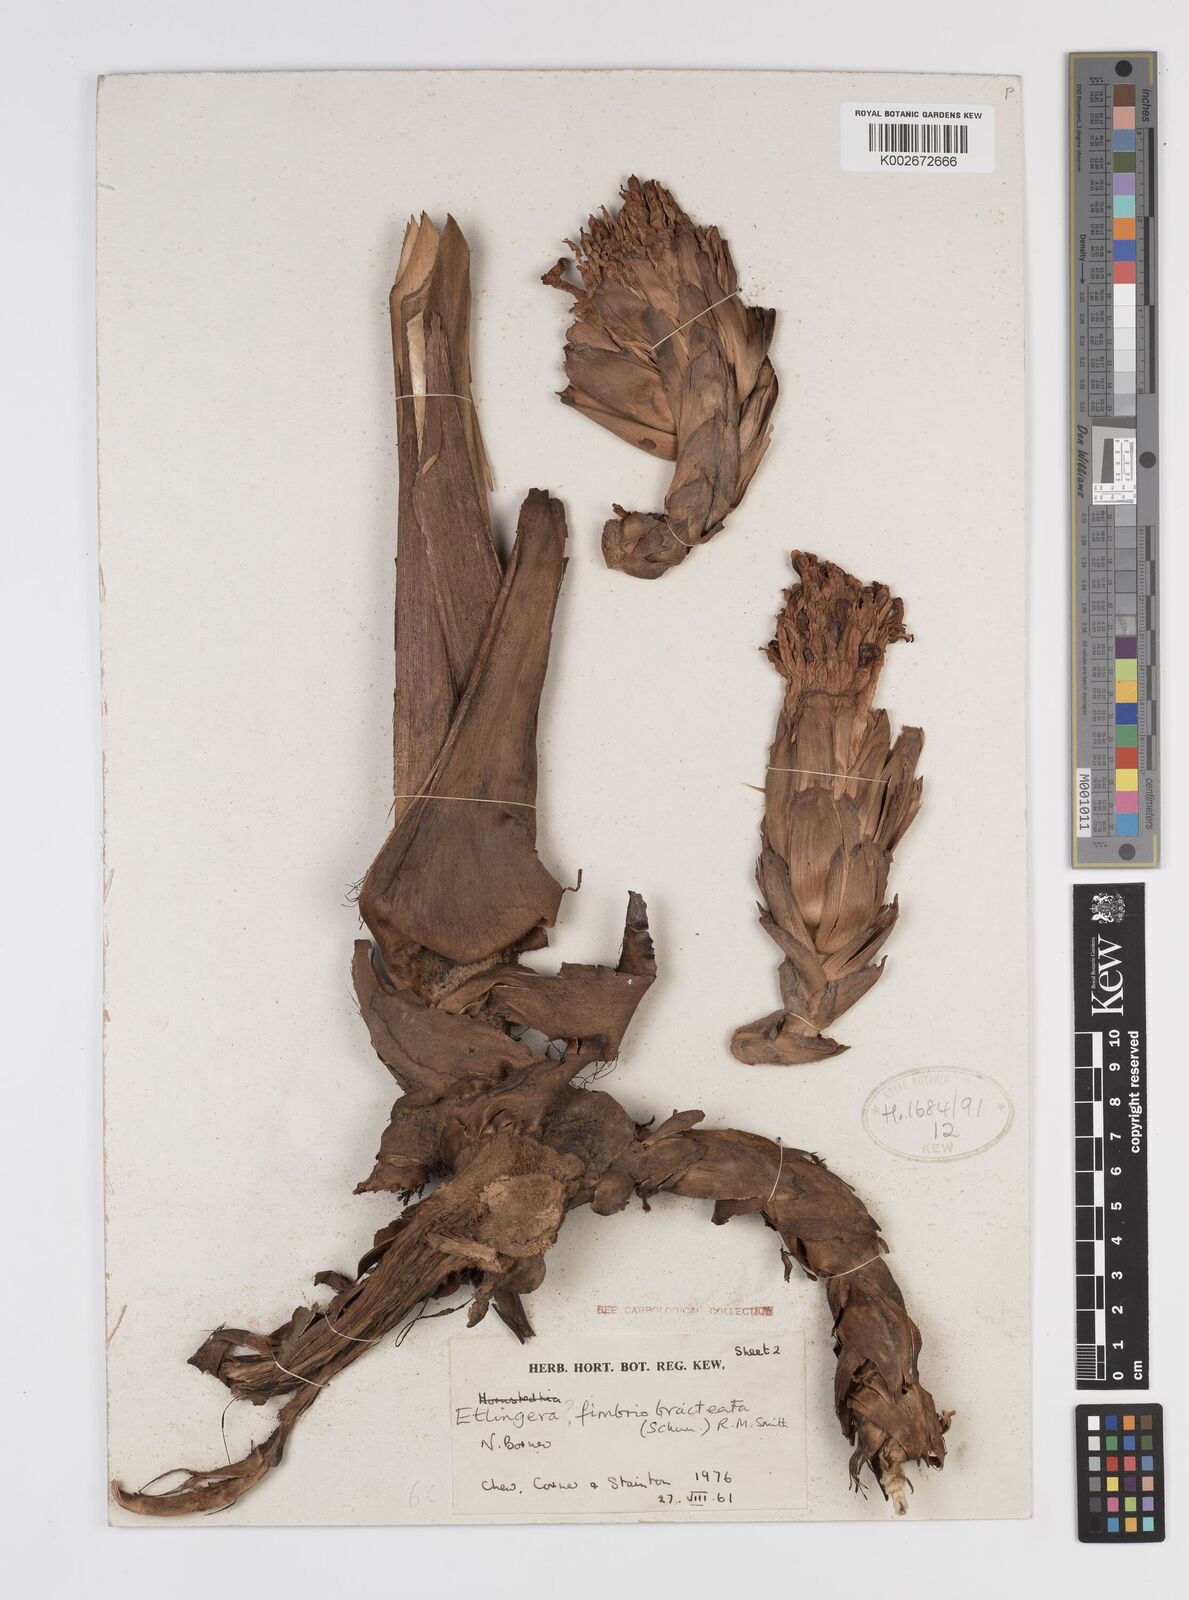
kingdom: Plantae
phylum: Tracheophyta
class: Liliopsida
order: Zingiberales
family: Zingiberaceae
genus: Etlingera
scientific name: Etlingera fimbriobracteata
